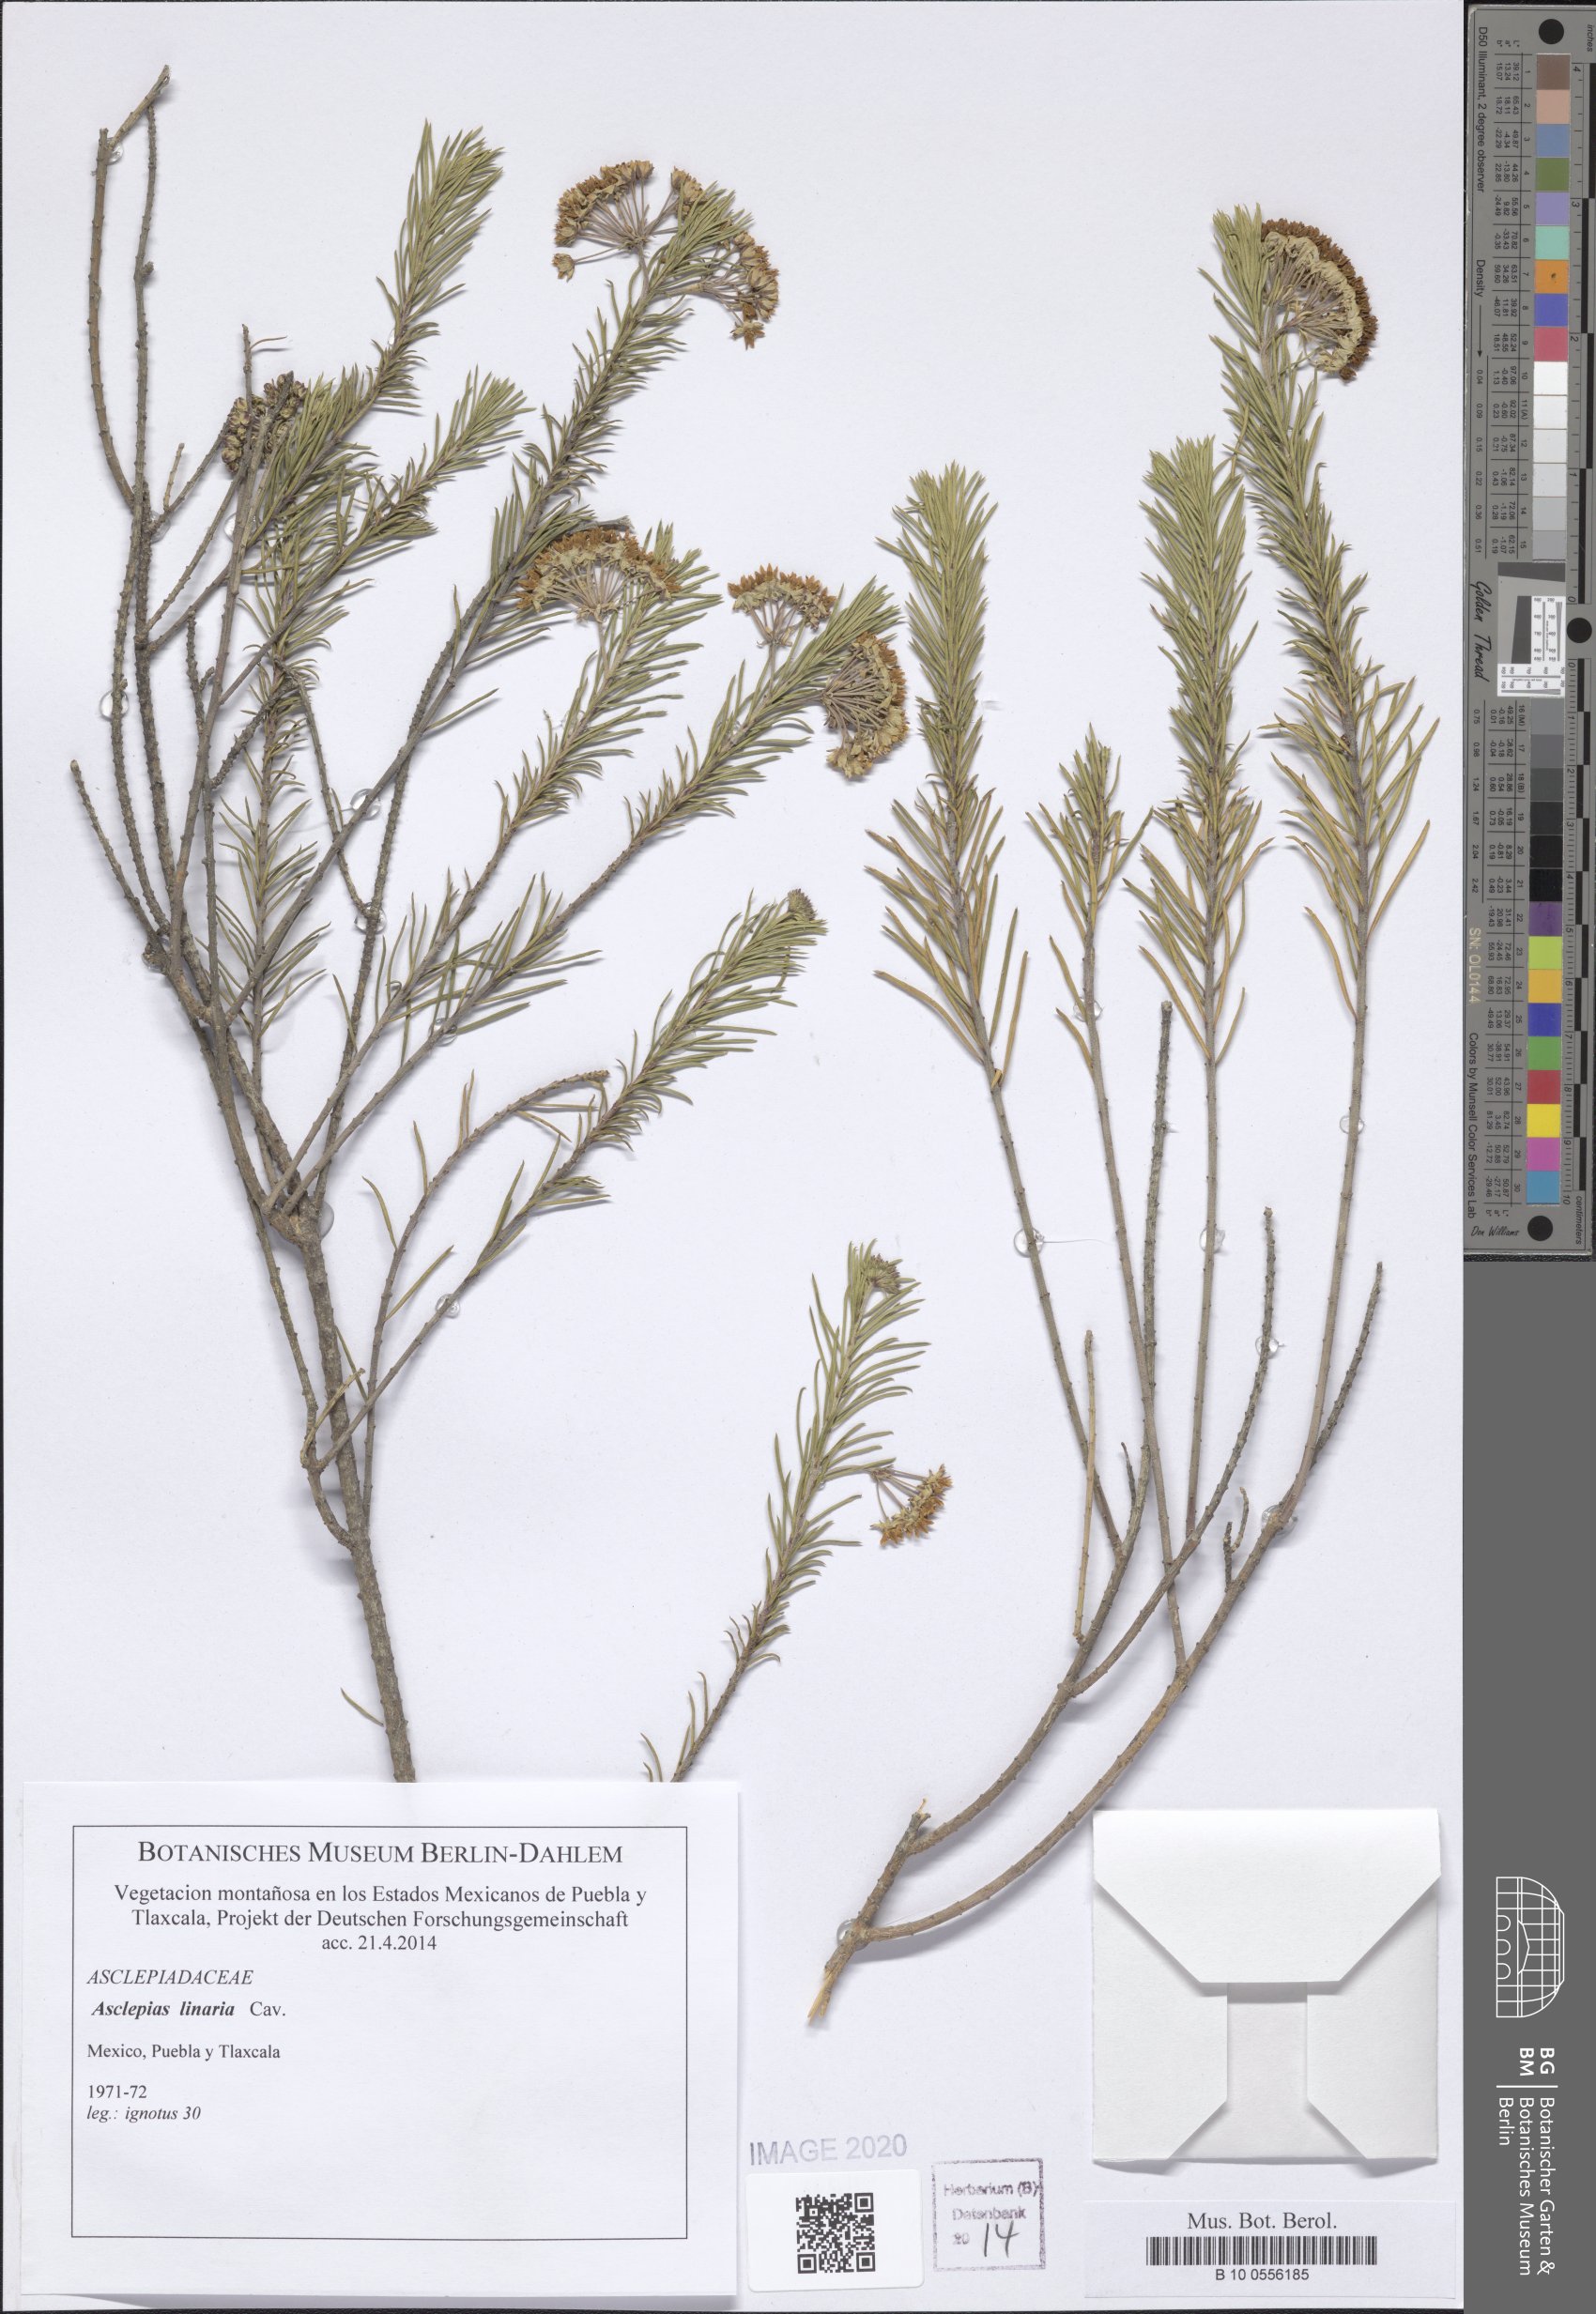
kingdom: Plantae
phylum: Tracheophyta
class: Magnoliopsida
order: Gentianales
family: Apocynaceae
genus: Asclepias
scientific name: Asclepias linaria
